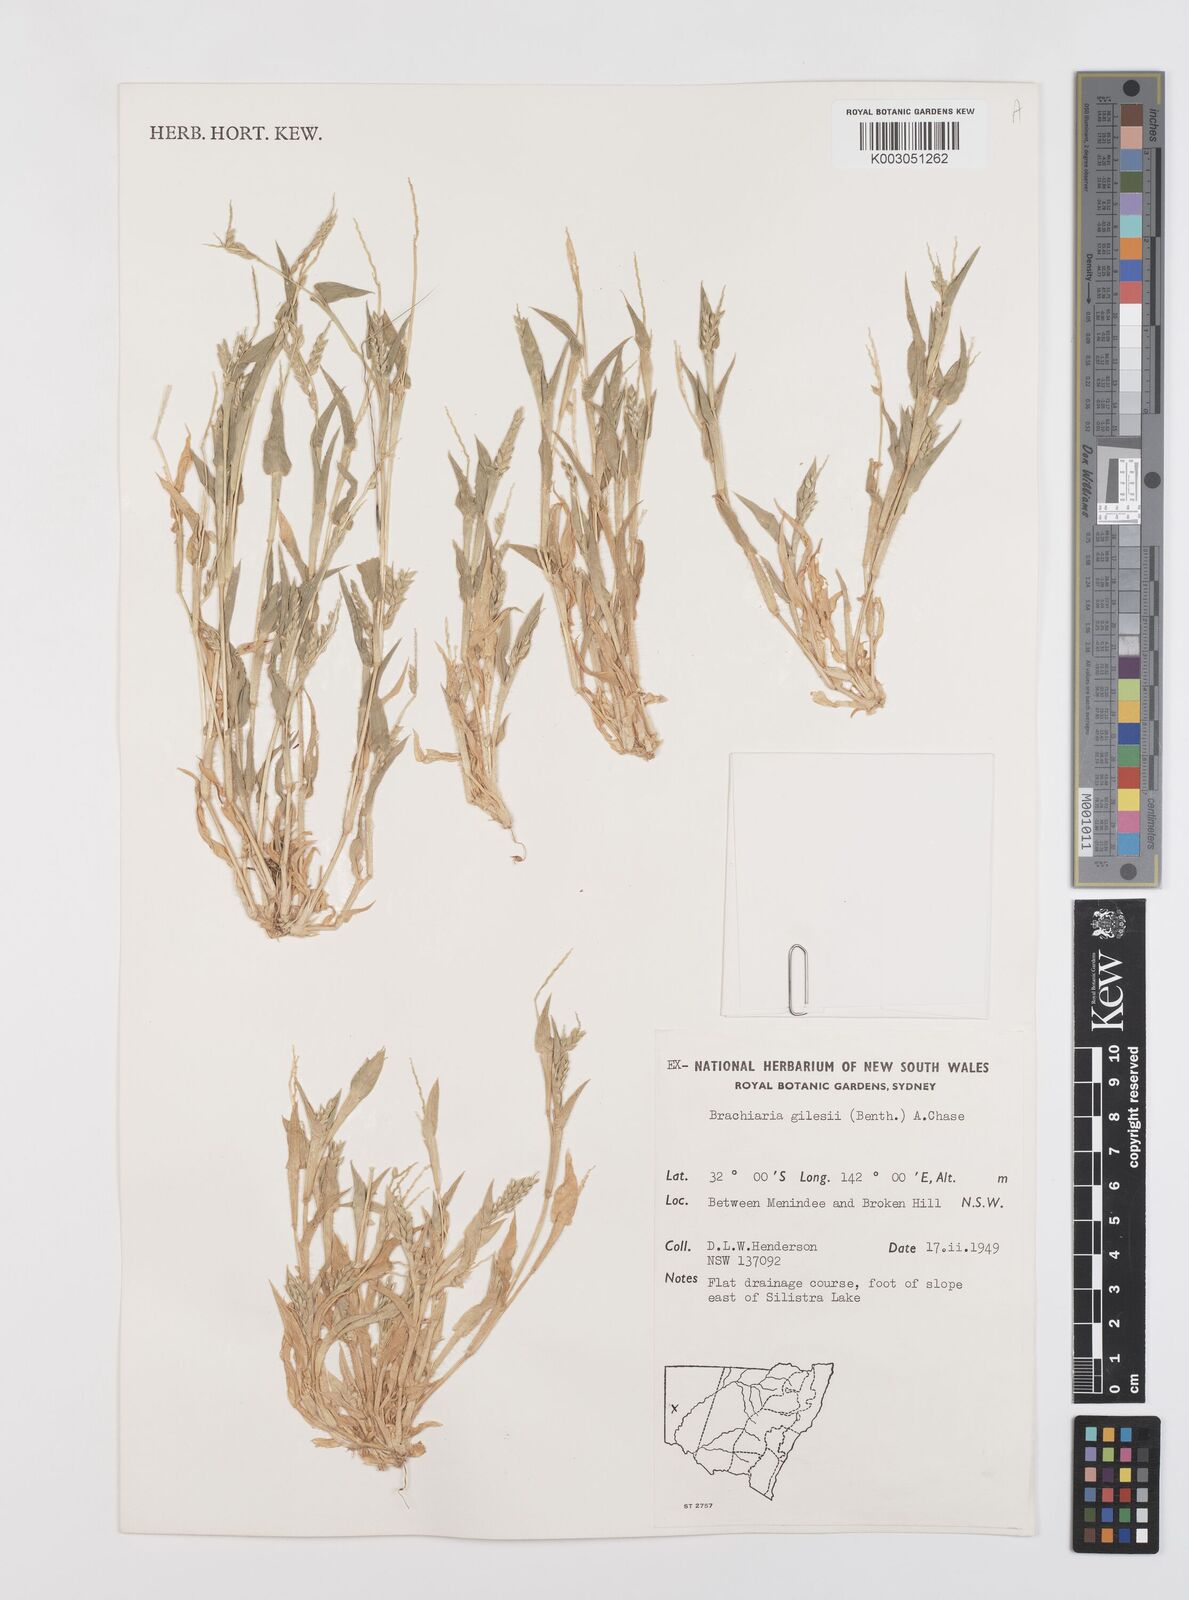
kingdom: Plantae
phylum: Tracheophyta
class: Liliopsida
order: Poales
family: Poaceae
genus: Urochloa
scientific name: Urochloa gilesii
